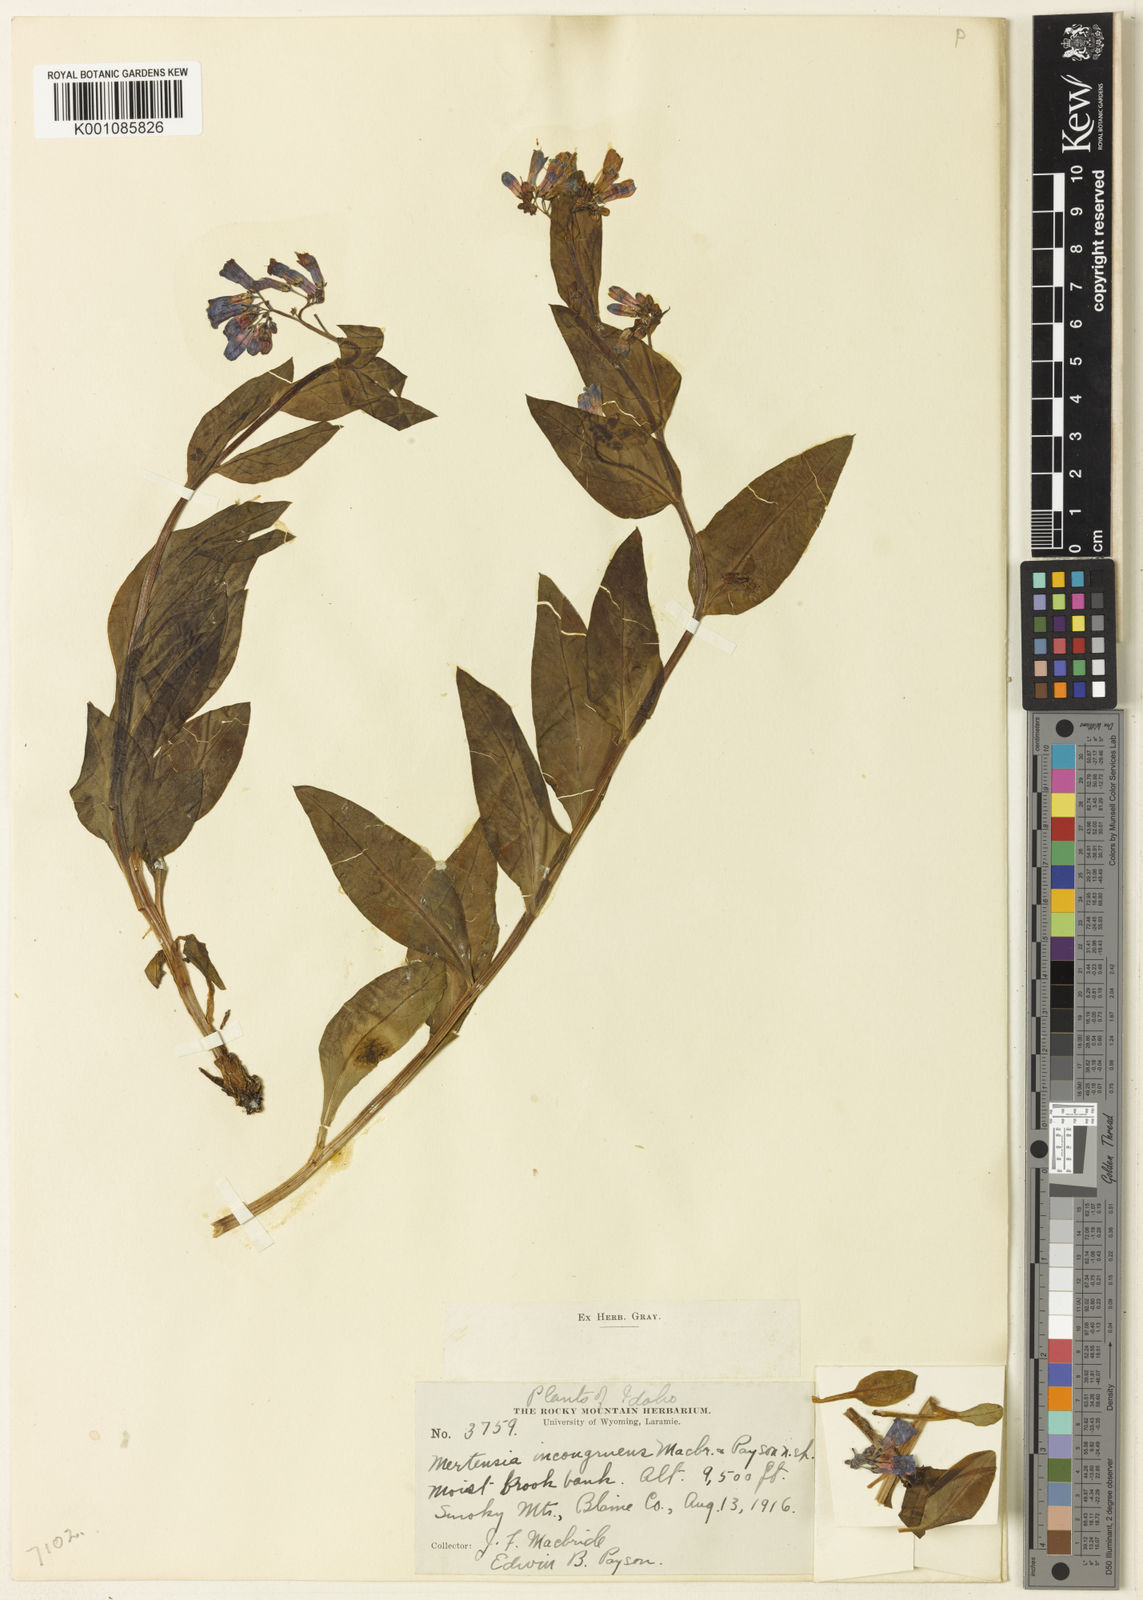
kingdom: Plantae
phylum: Tracheophyta
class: Magnoliopsida
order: Boraginales
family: Boraginaceae
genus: Mertensia
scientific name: Mertensia ciliata
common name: Tall chiming-bells
